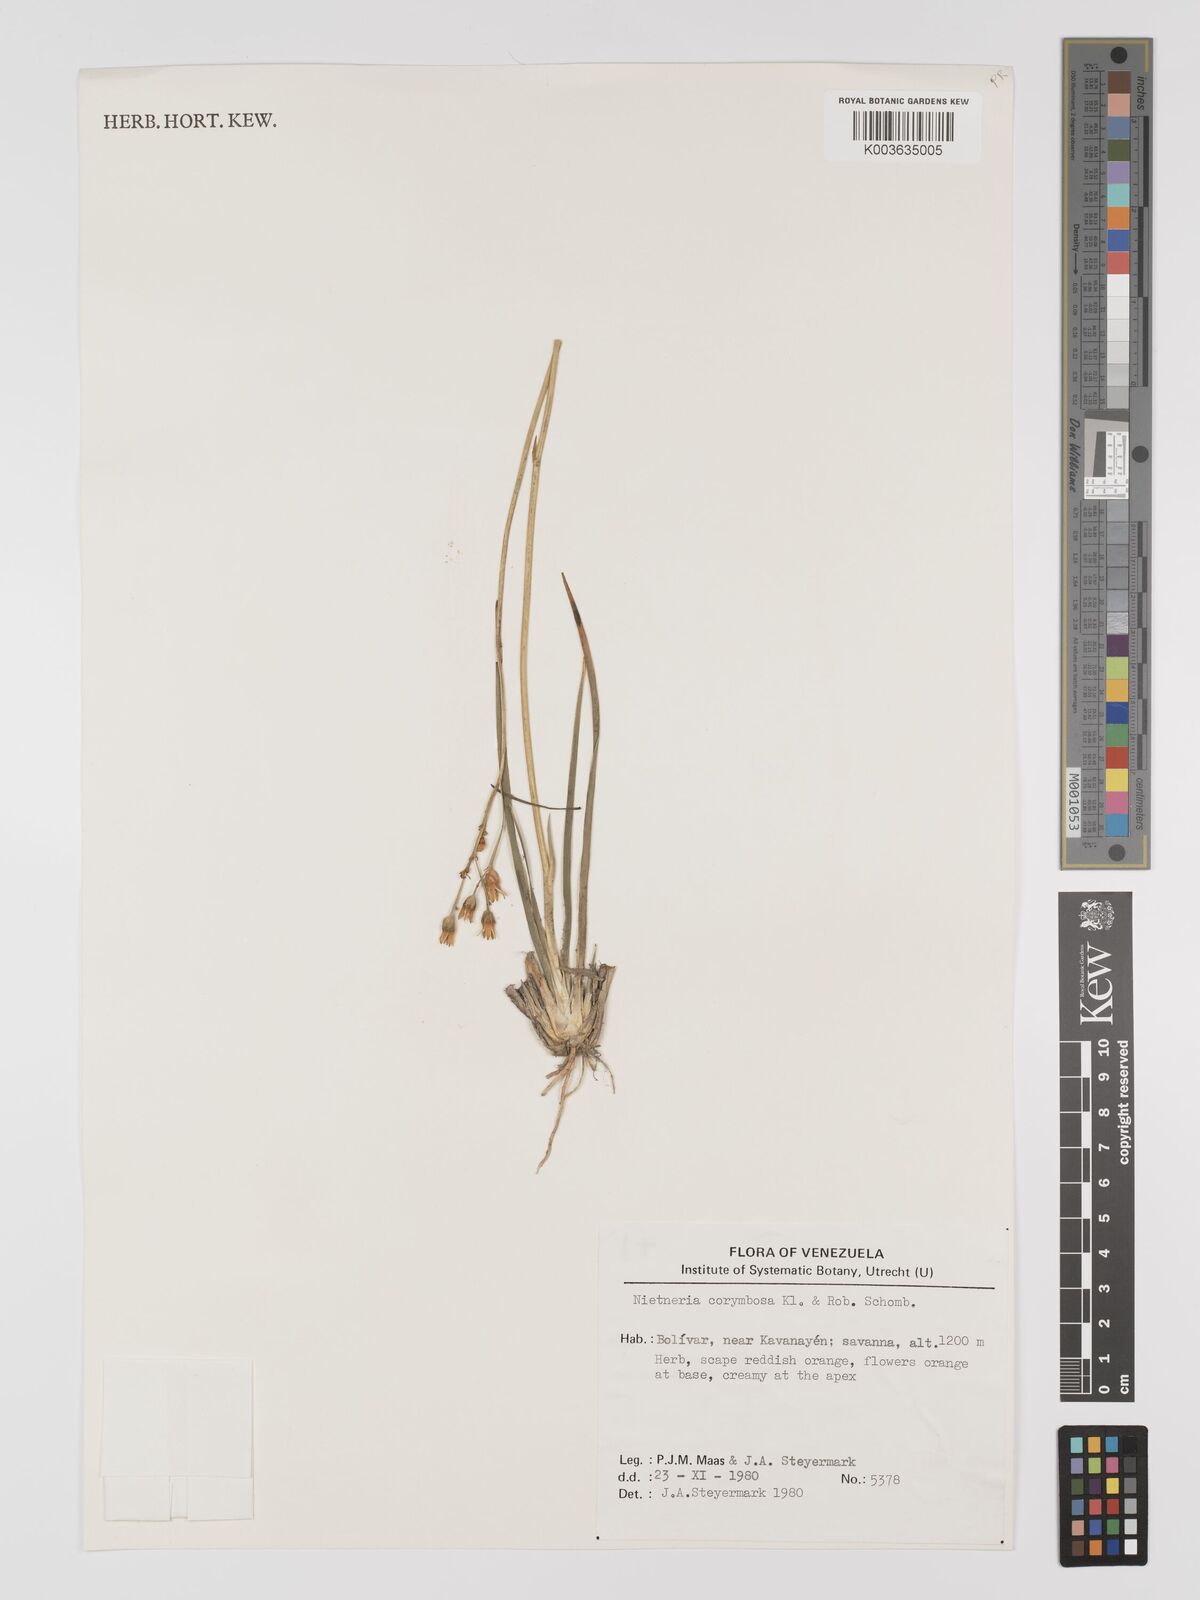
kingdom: Plantae
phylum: Tracheophyta
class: Liliopsida
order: Dioscoreales
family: Nartheciaceae
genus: Nietneria
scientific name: Nietneria corymbosa
